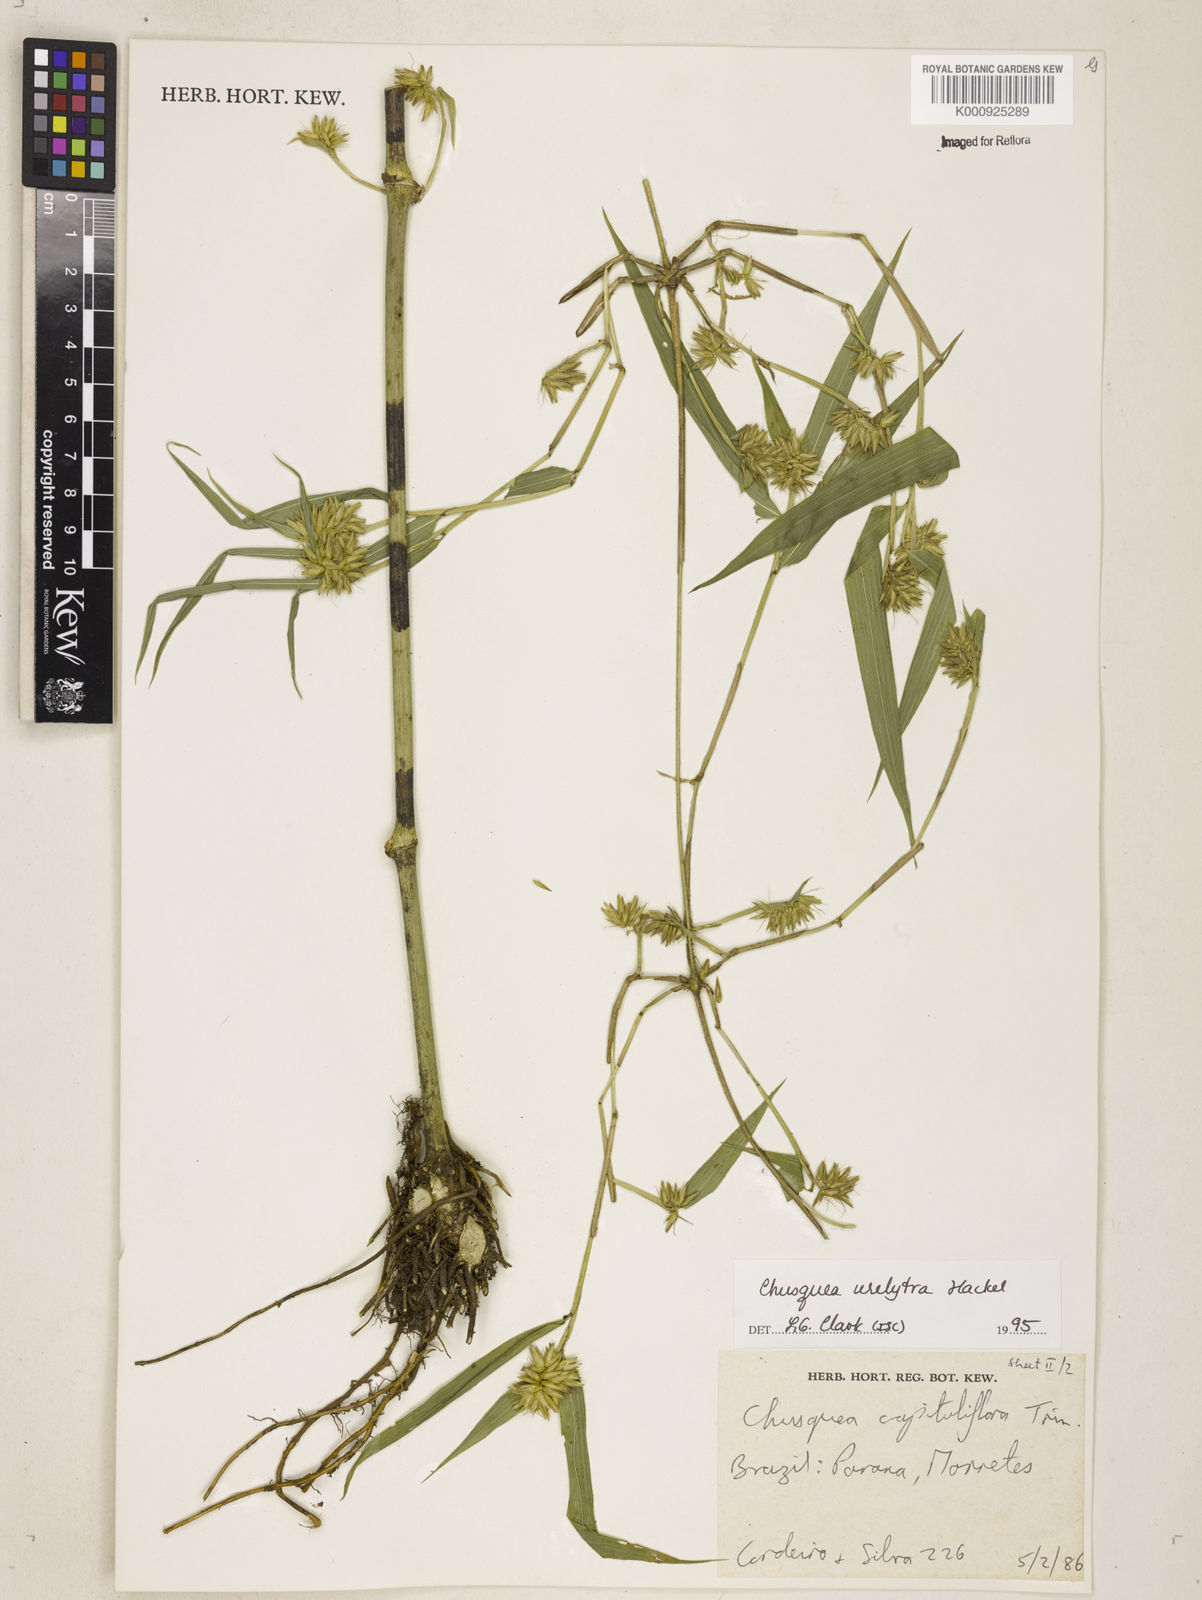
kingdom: Plantae
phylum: Tracheophyta
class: Liliopsida
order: Poales
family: Poaceae
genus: Chusquea
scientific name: Chusquea urelytra
